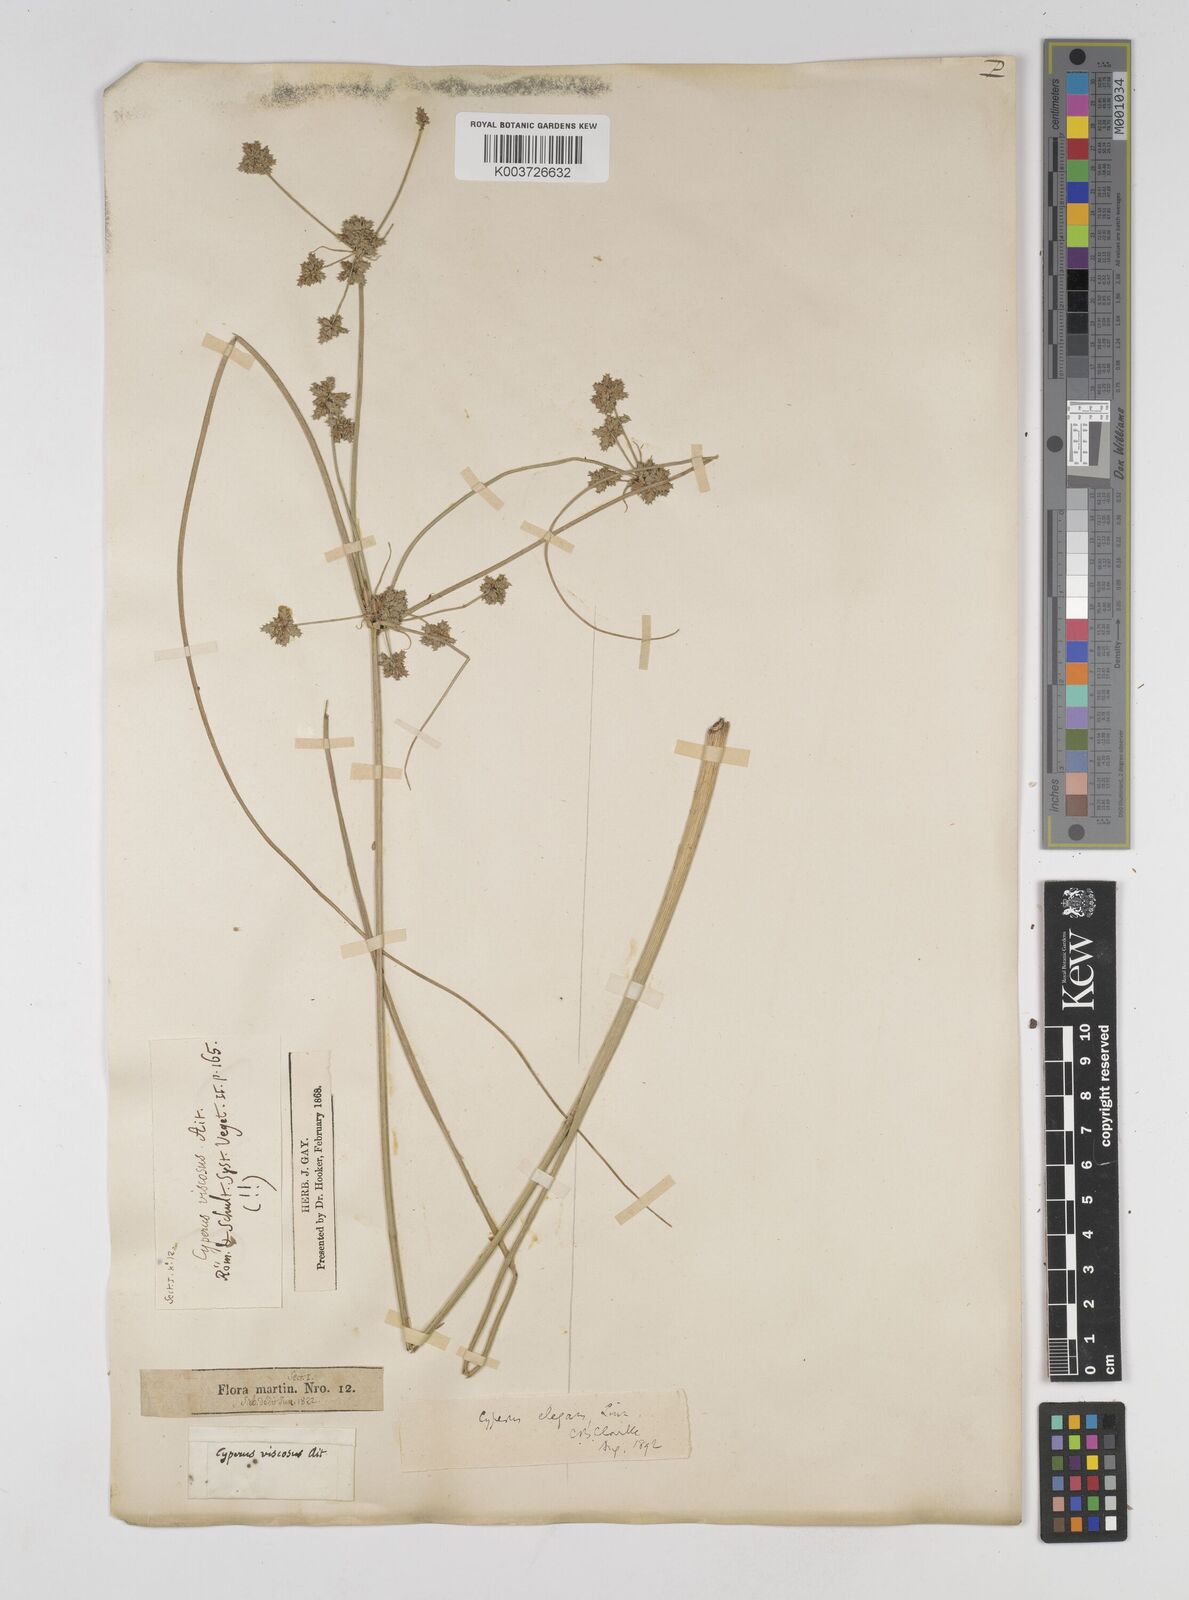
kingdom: Plantae
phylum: Tracheophyta
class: Liliopsida
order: Poales
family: Cyperaceae
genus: Cyperus
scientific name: Cyperus elegans
